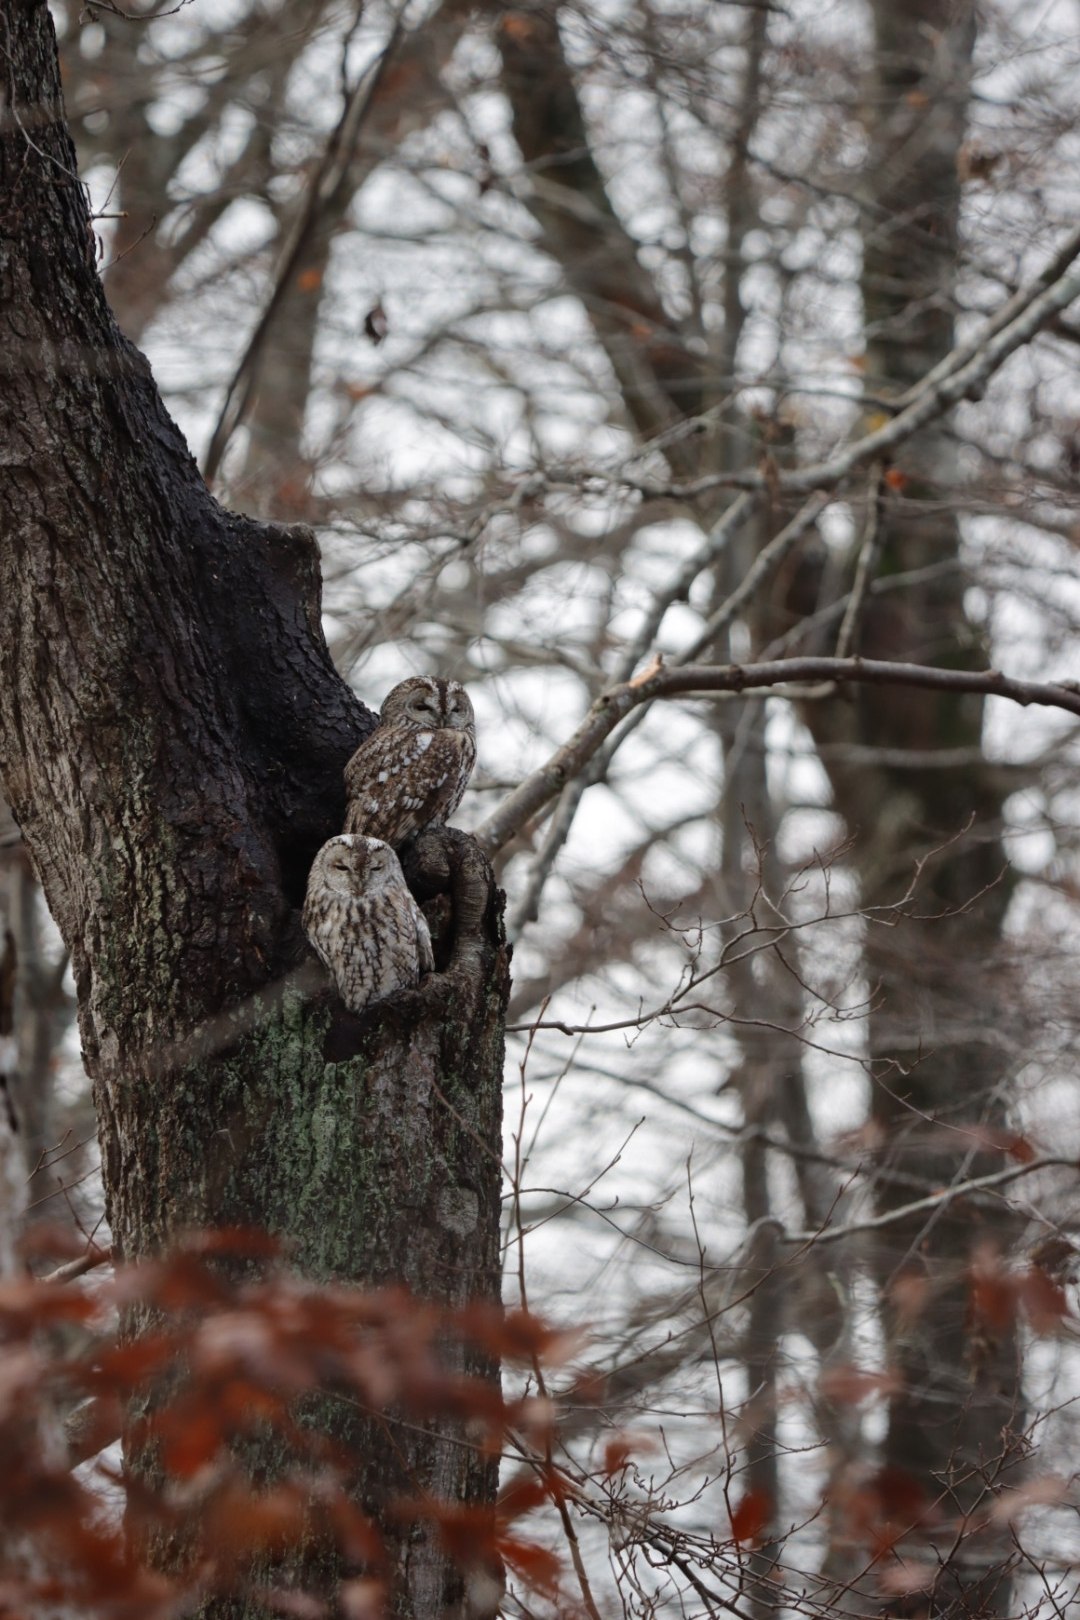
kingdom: Animalia
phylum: Chordata
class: Aves
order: Strigiformes
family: Strigidae
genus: Strix
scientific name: Strix aluco
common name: Natugle
